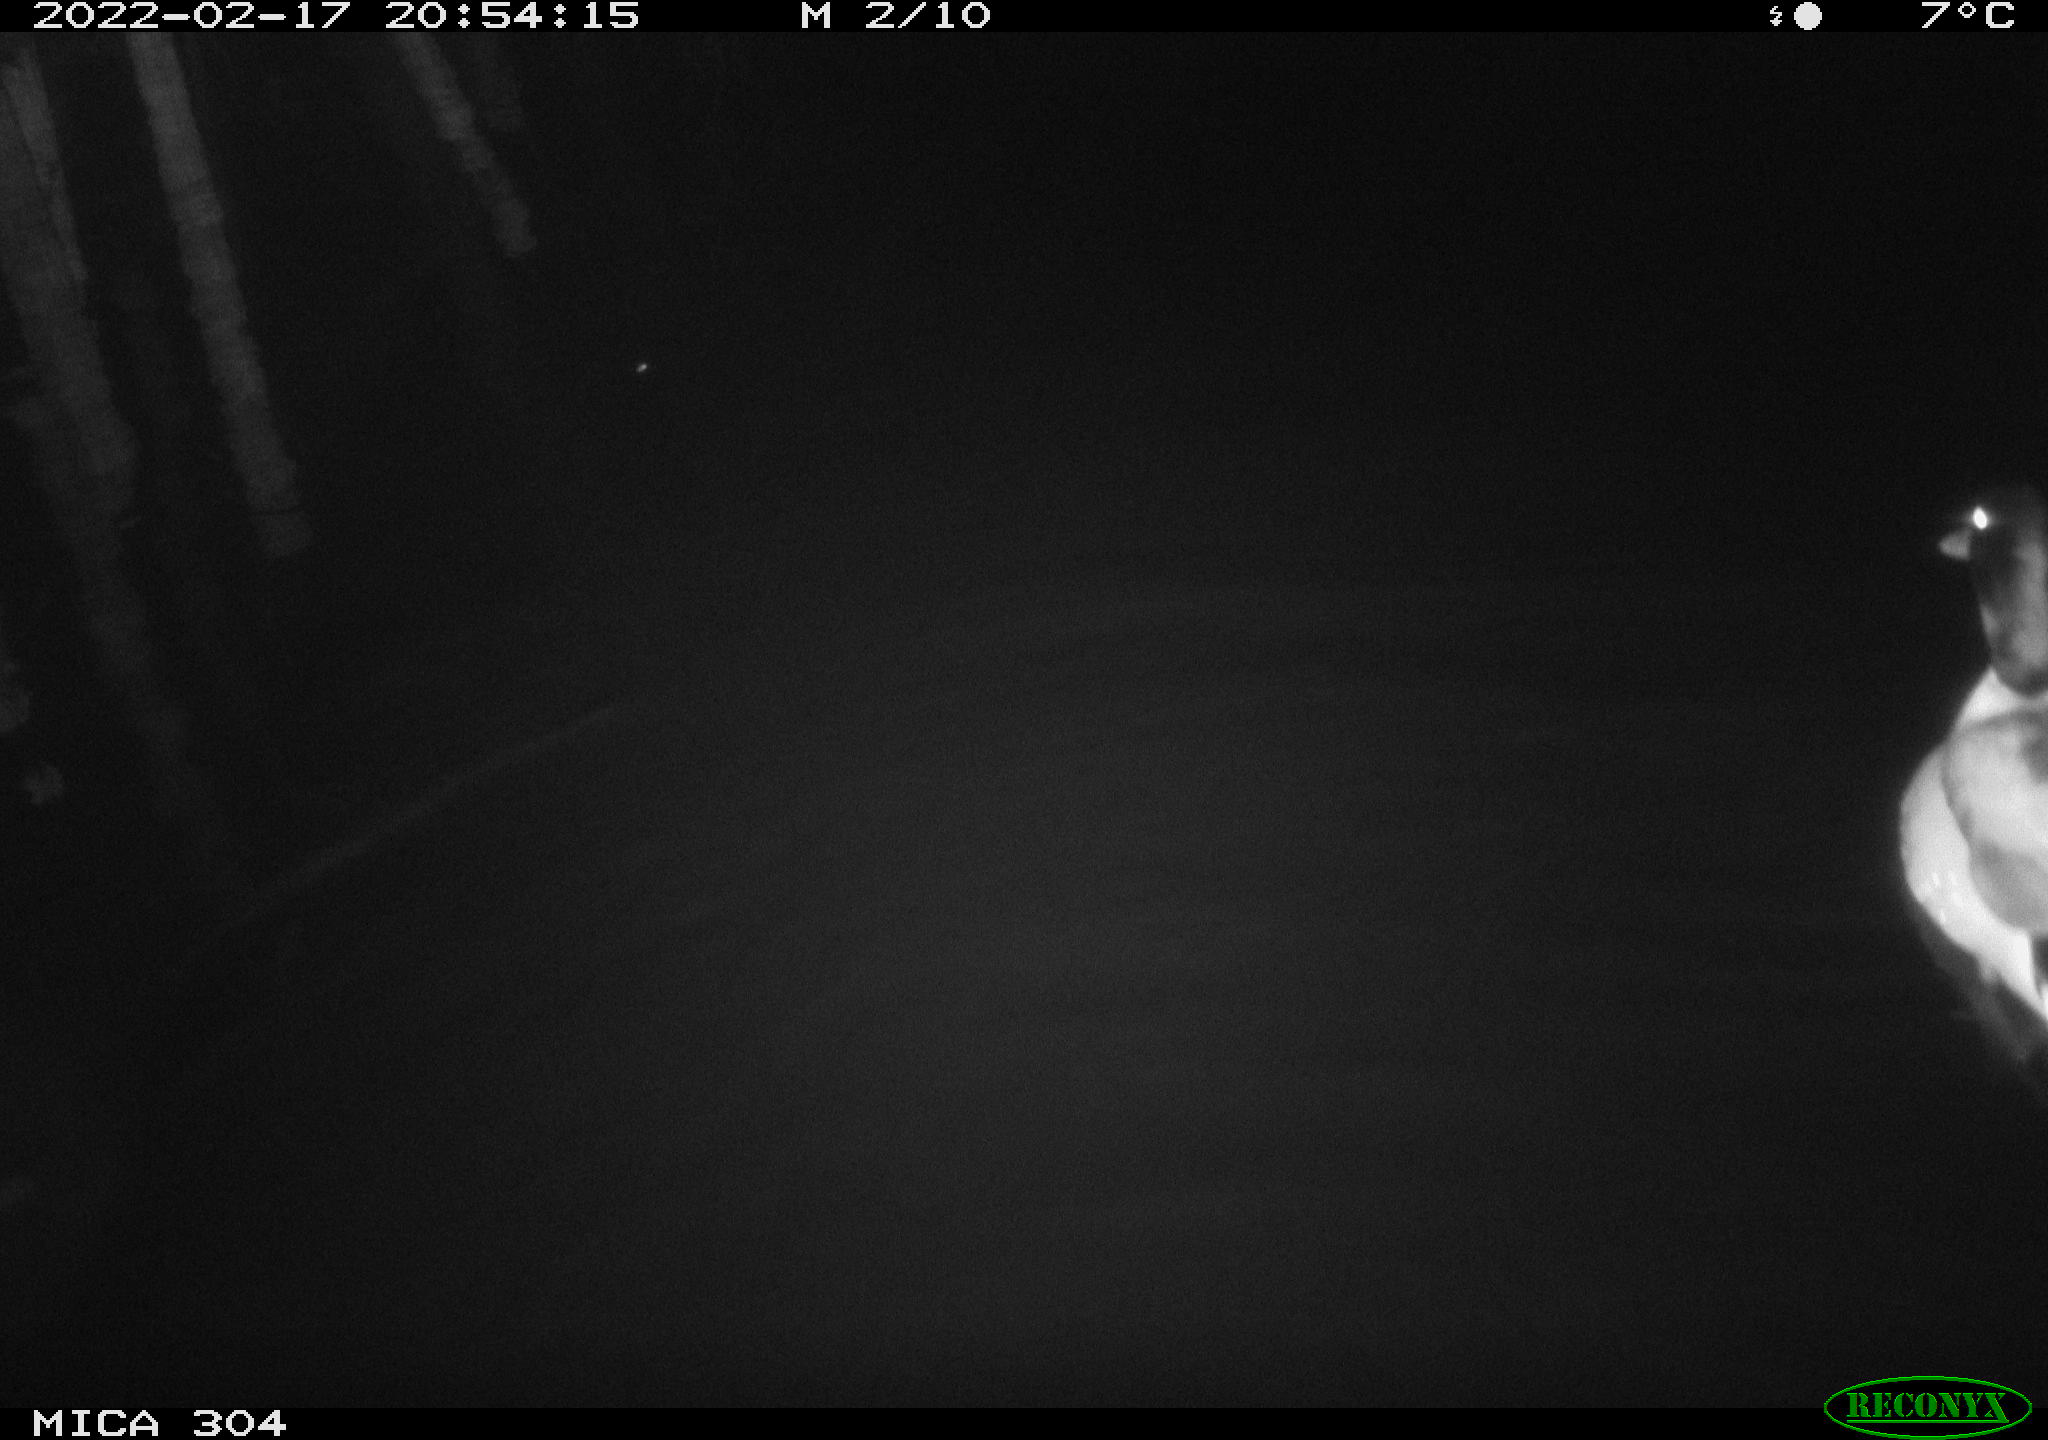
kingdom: Animalia
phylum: Chordata
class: Aves
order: Anseriformes
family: Anatidae
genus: Anas
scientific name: Anas platyrhynchos
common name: Mallard
